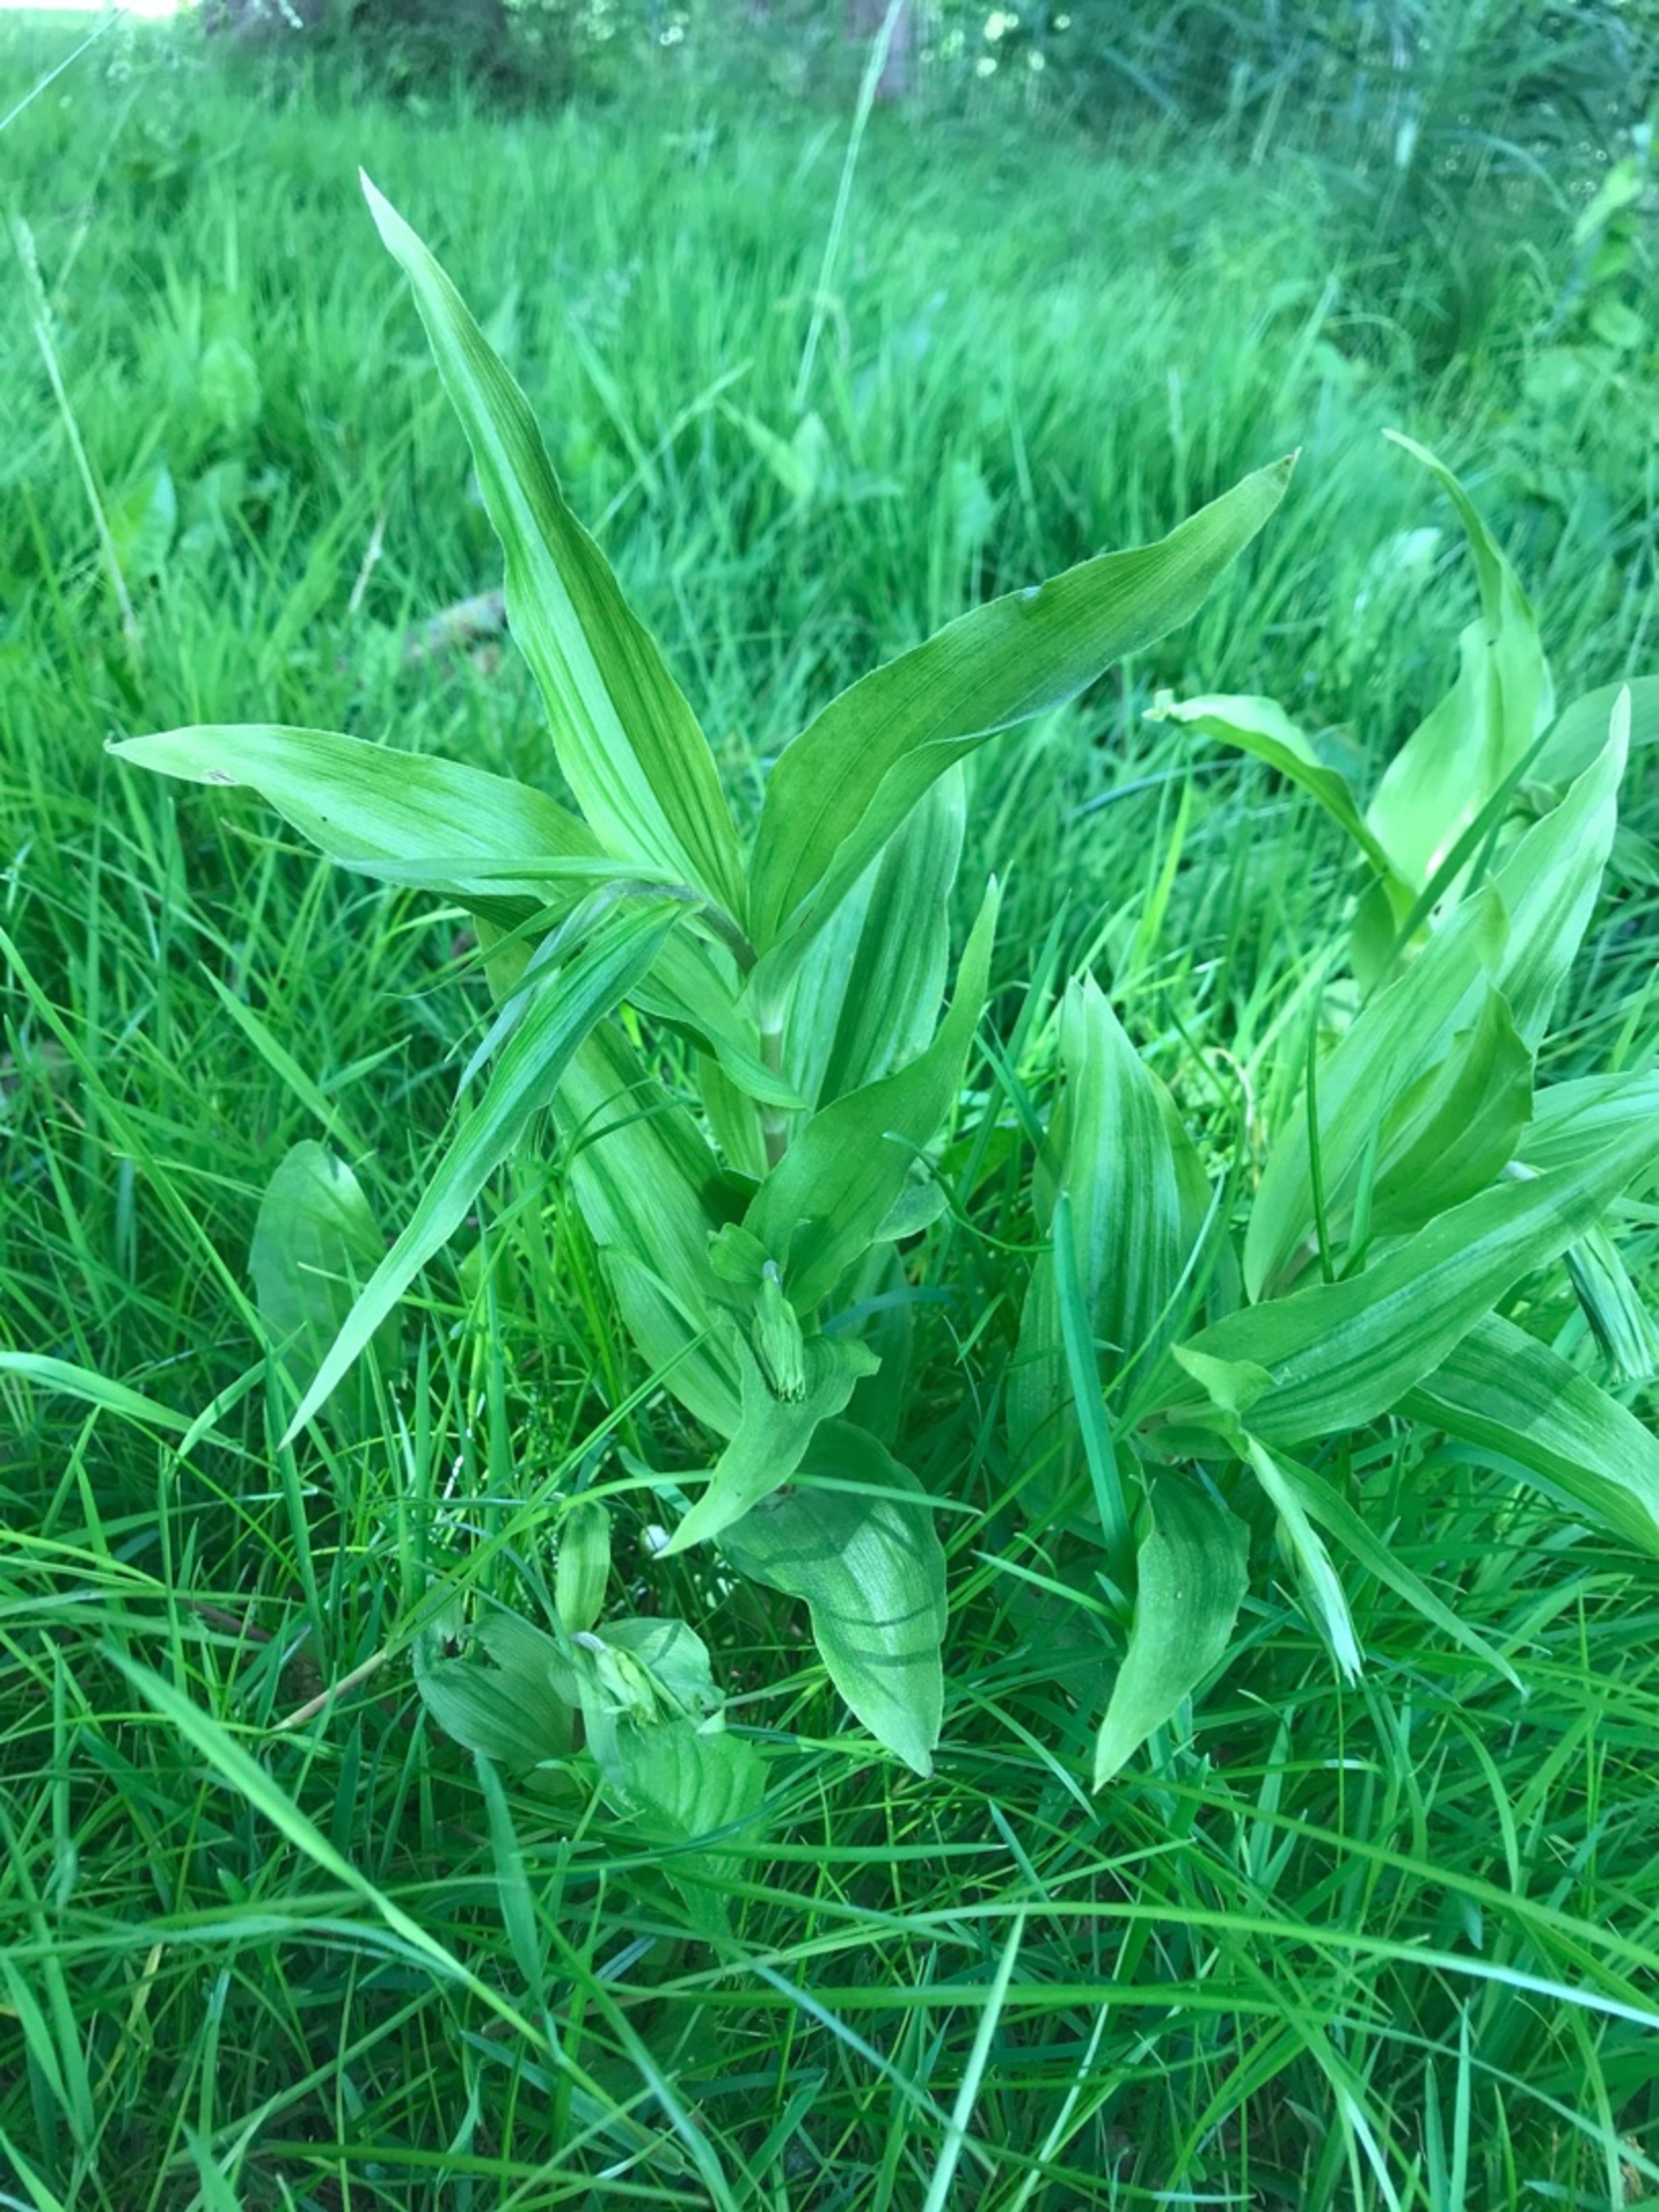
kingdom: Plantae
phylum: Tracheophyta
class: Liliopsida
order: Asparagales
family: Orchidaceae
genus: Epipactis
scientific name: Epipactis helleborine
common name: Skov-hullæbe
